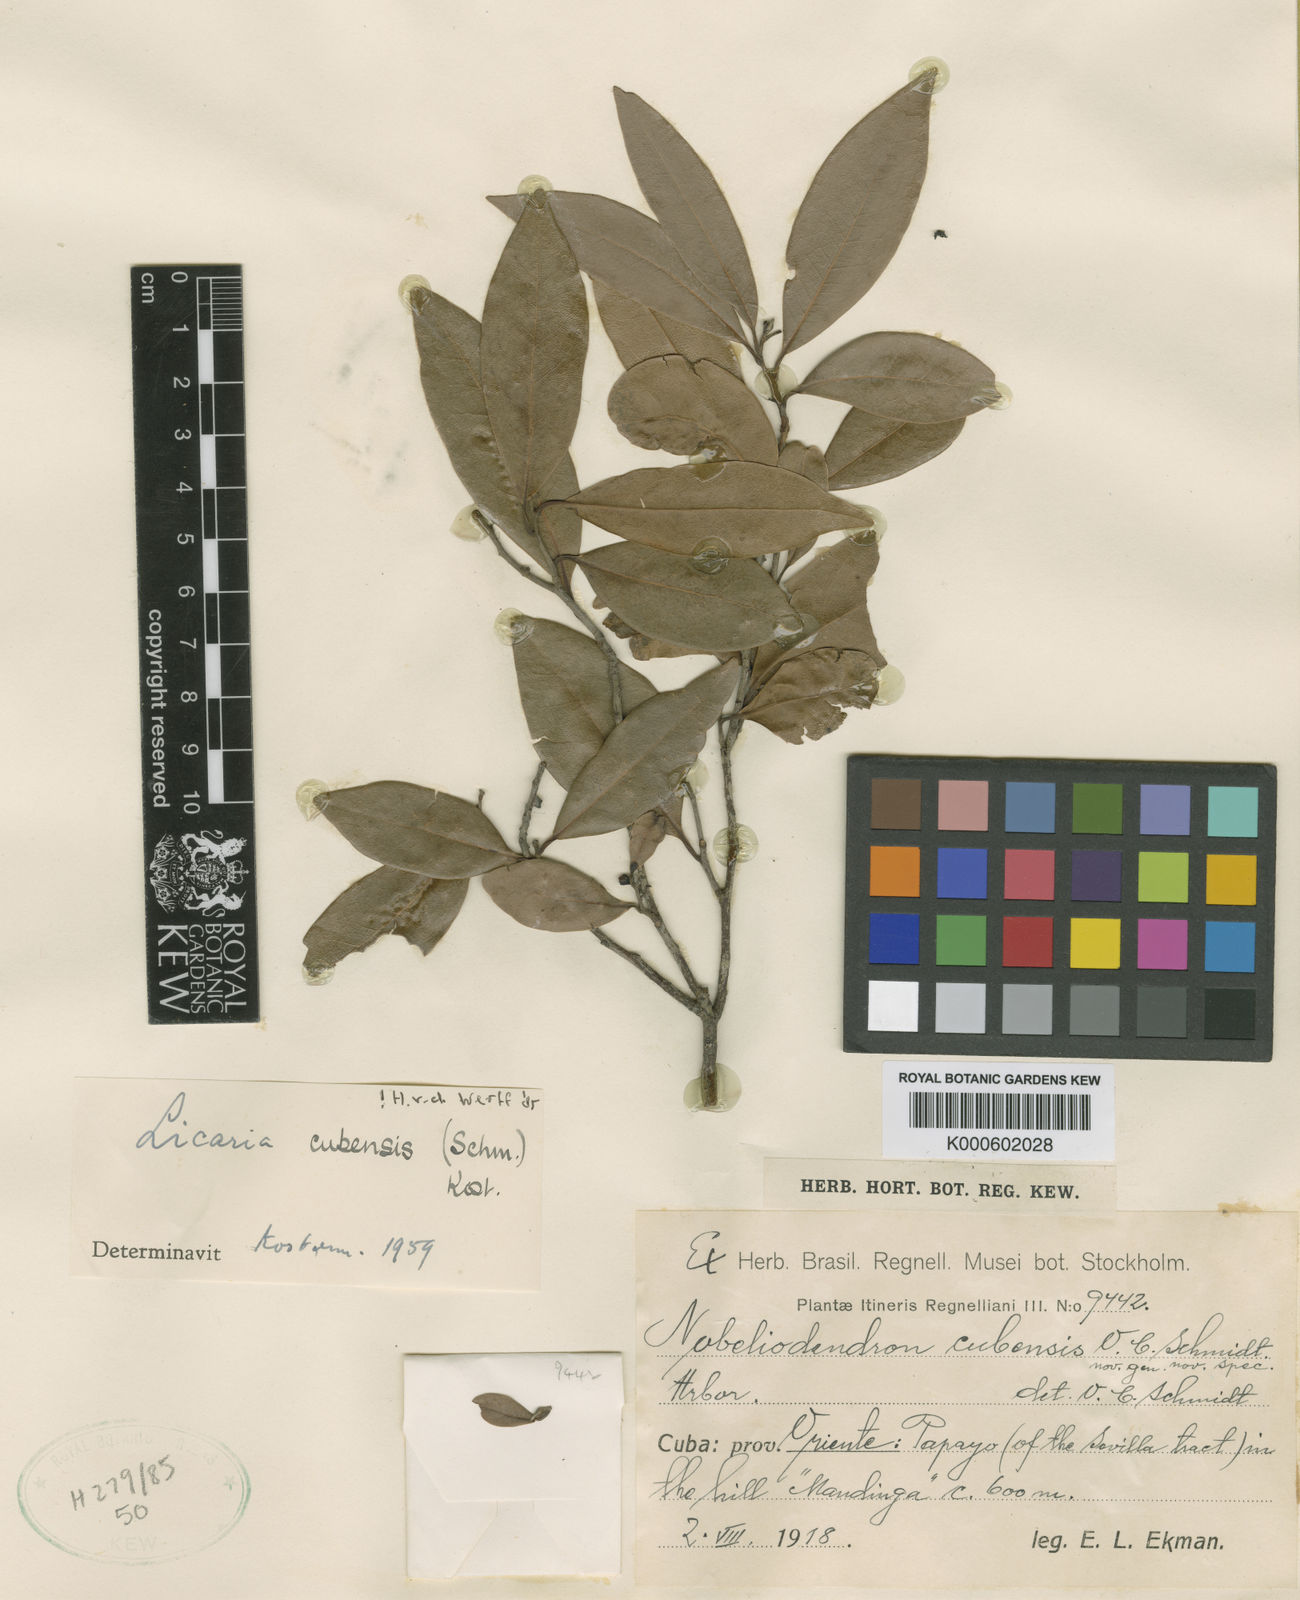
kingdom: Plantae
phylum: Tracheophyta
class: Magnoliopsida
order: Laurales
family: Lauraceae
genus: Licaria
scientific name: Licaria cubensis
